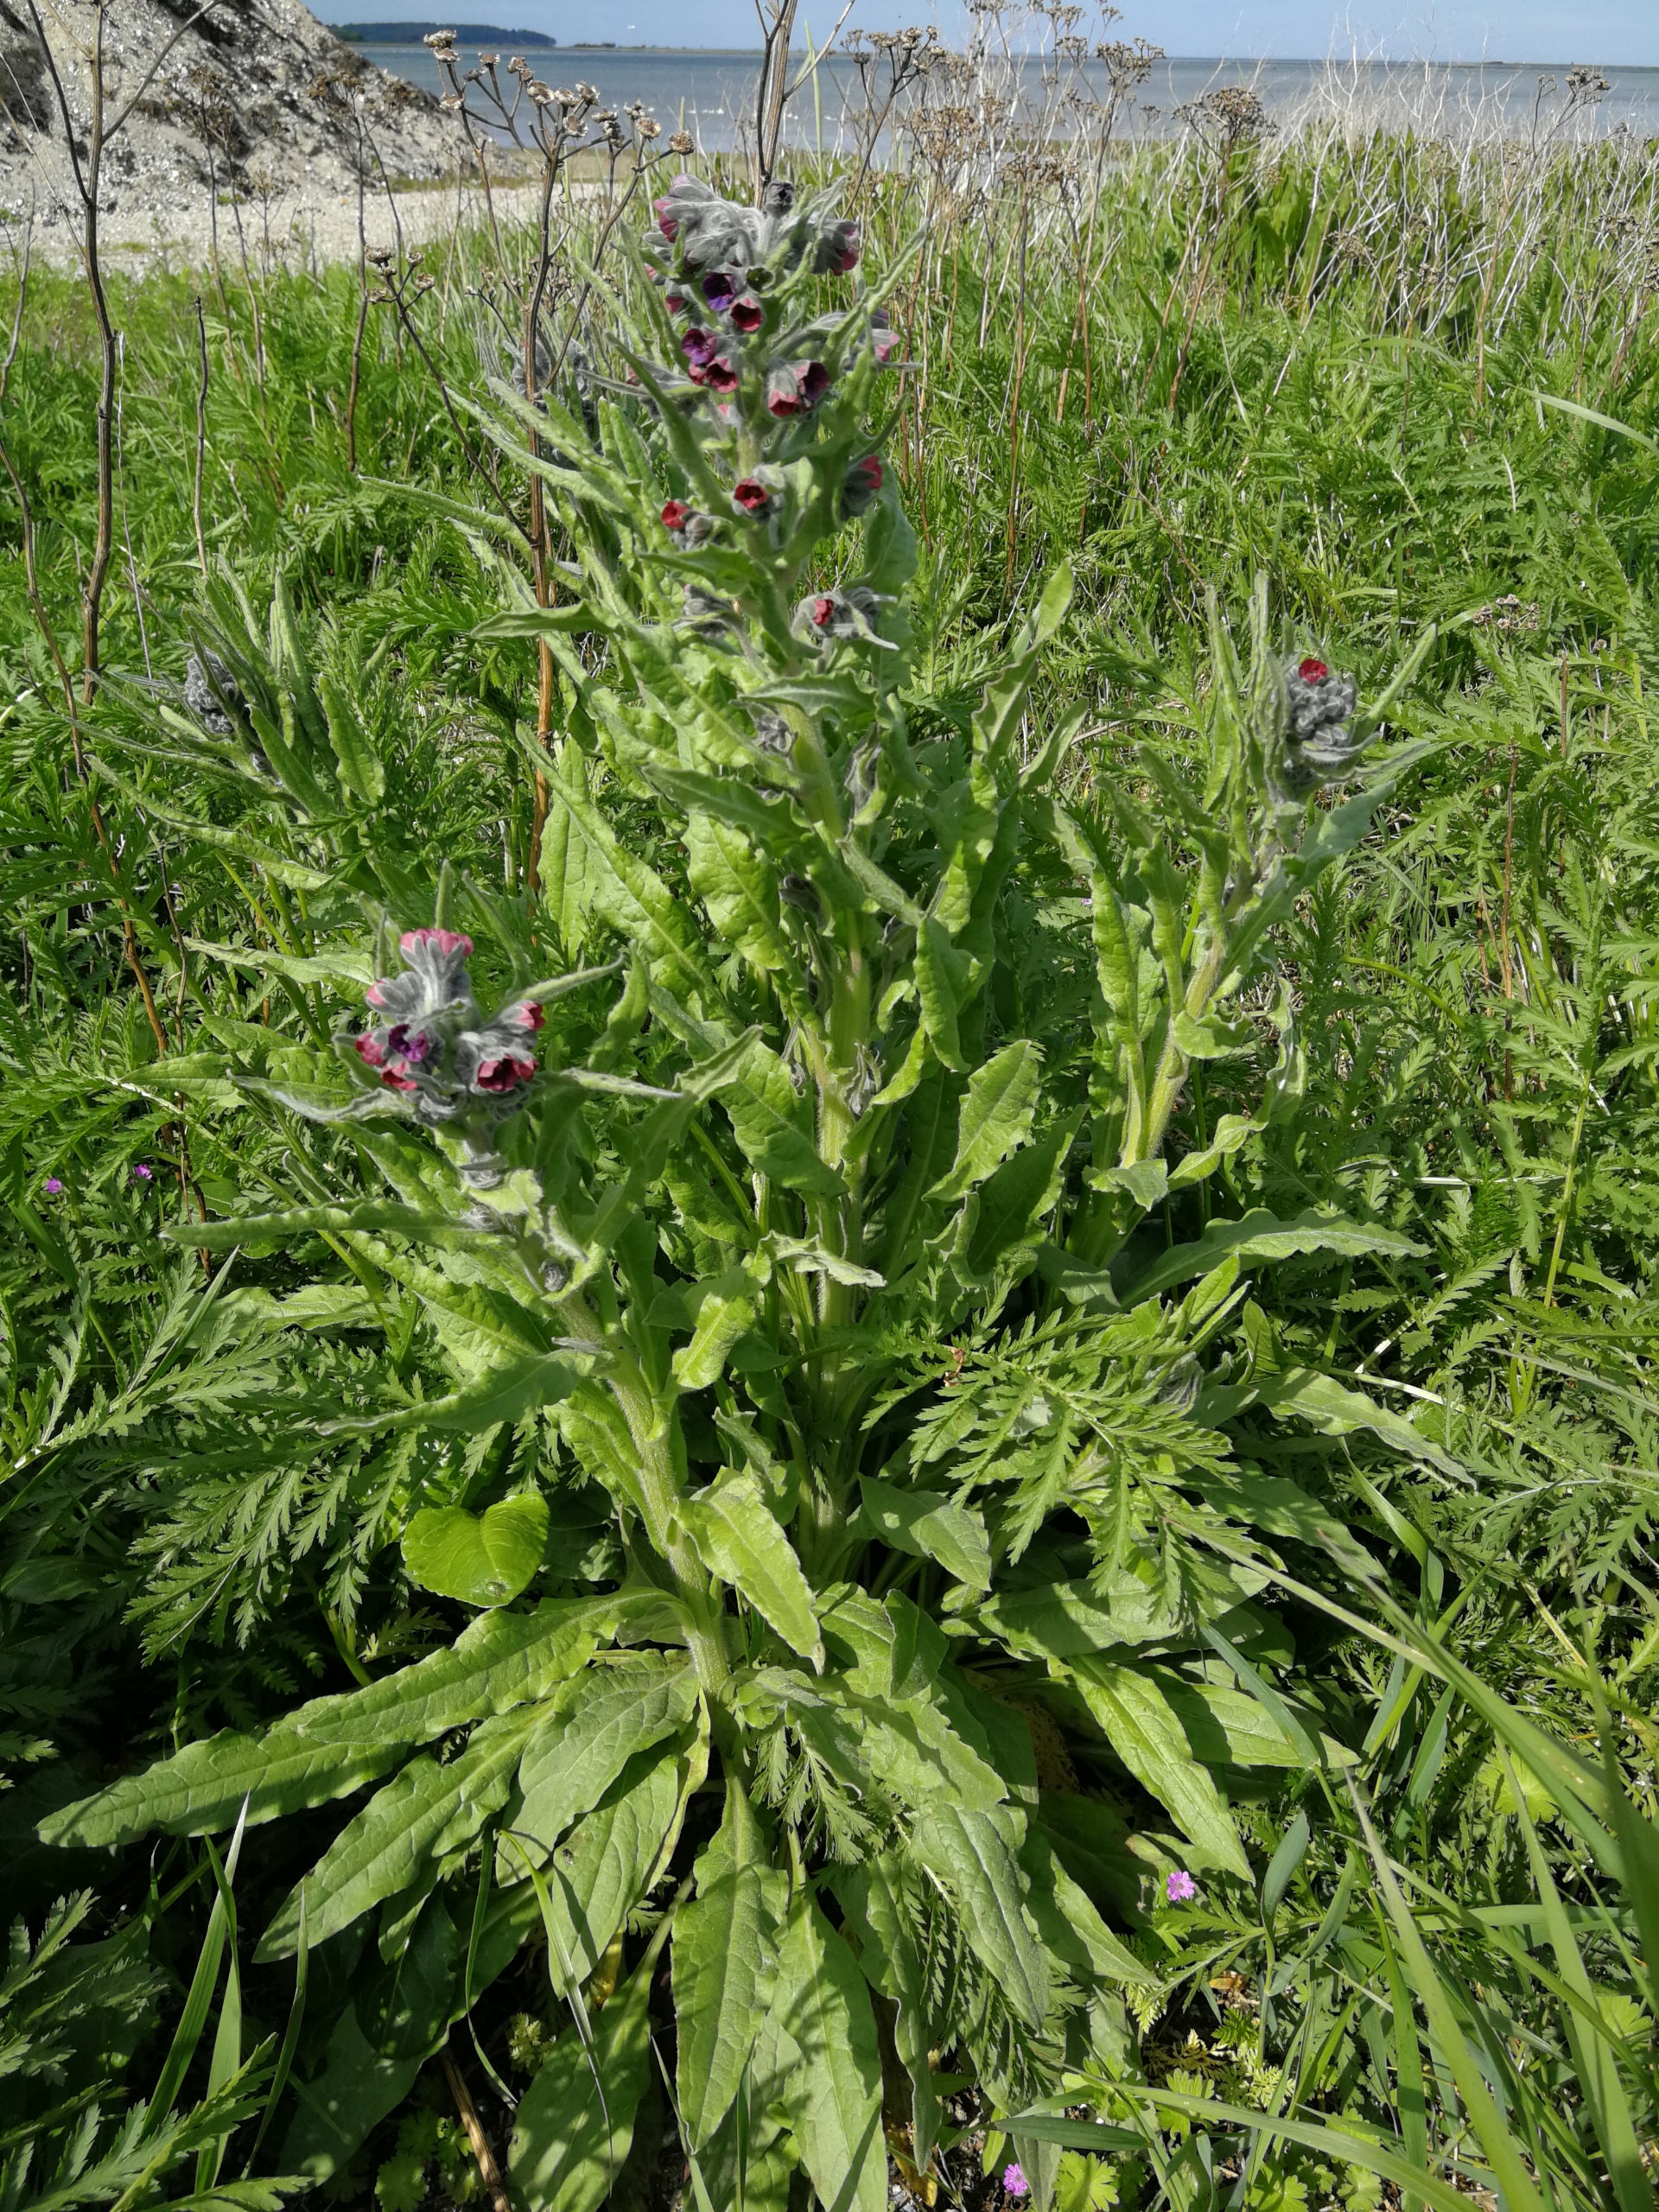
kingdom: Plantae
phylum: Tracheophyta
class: Magnoliopsida
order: Boraginales
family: Boraginaceae
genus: Cynoglossum
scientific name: Cynoglossum officinale
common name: Hundetunge
